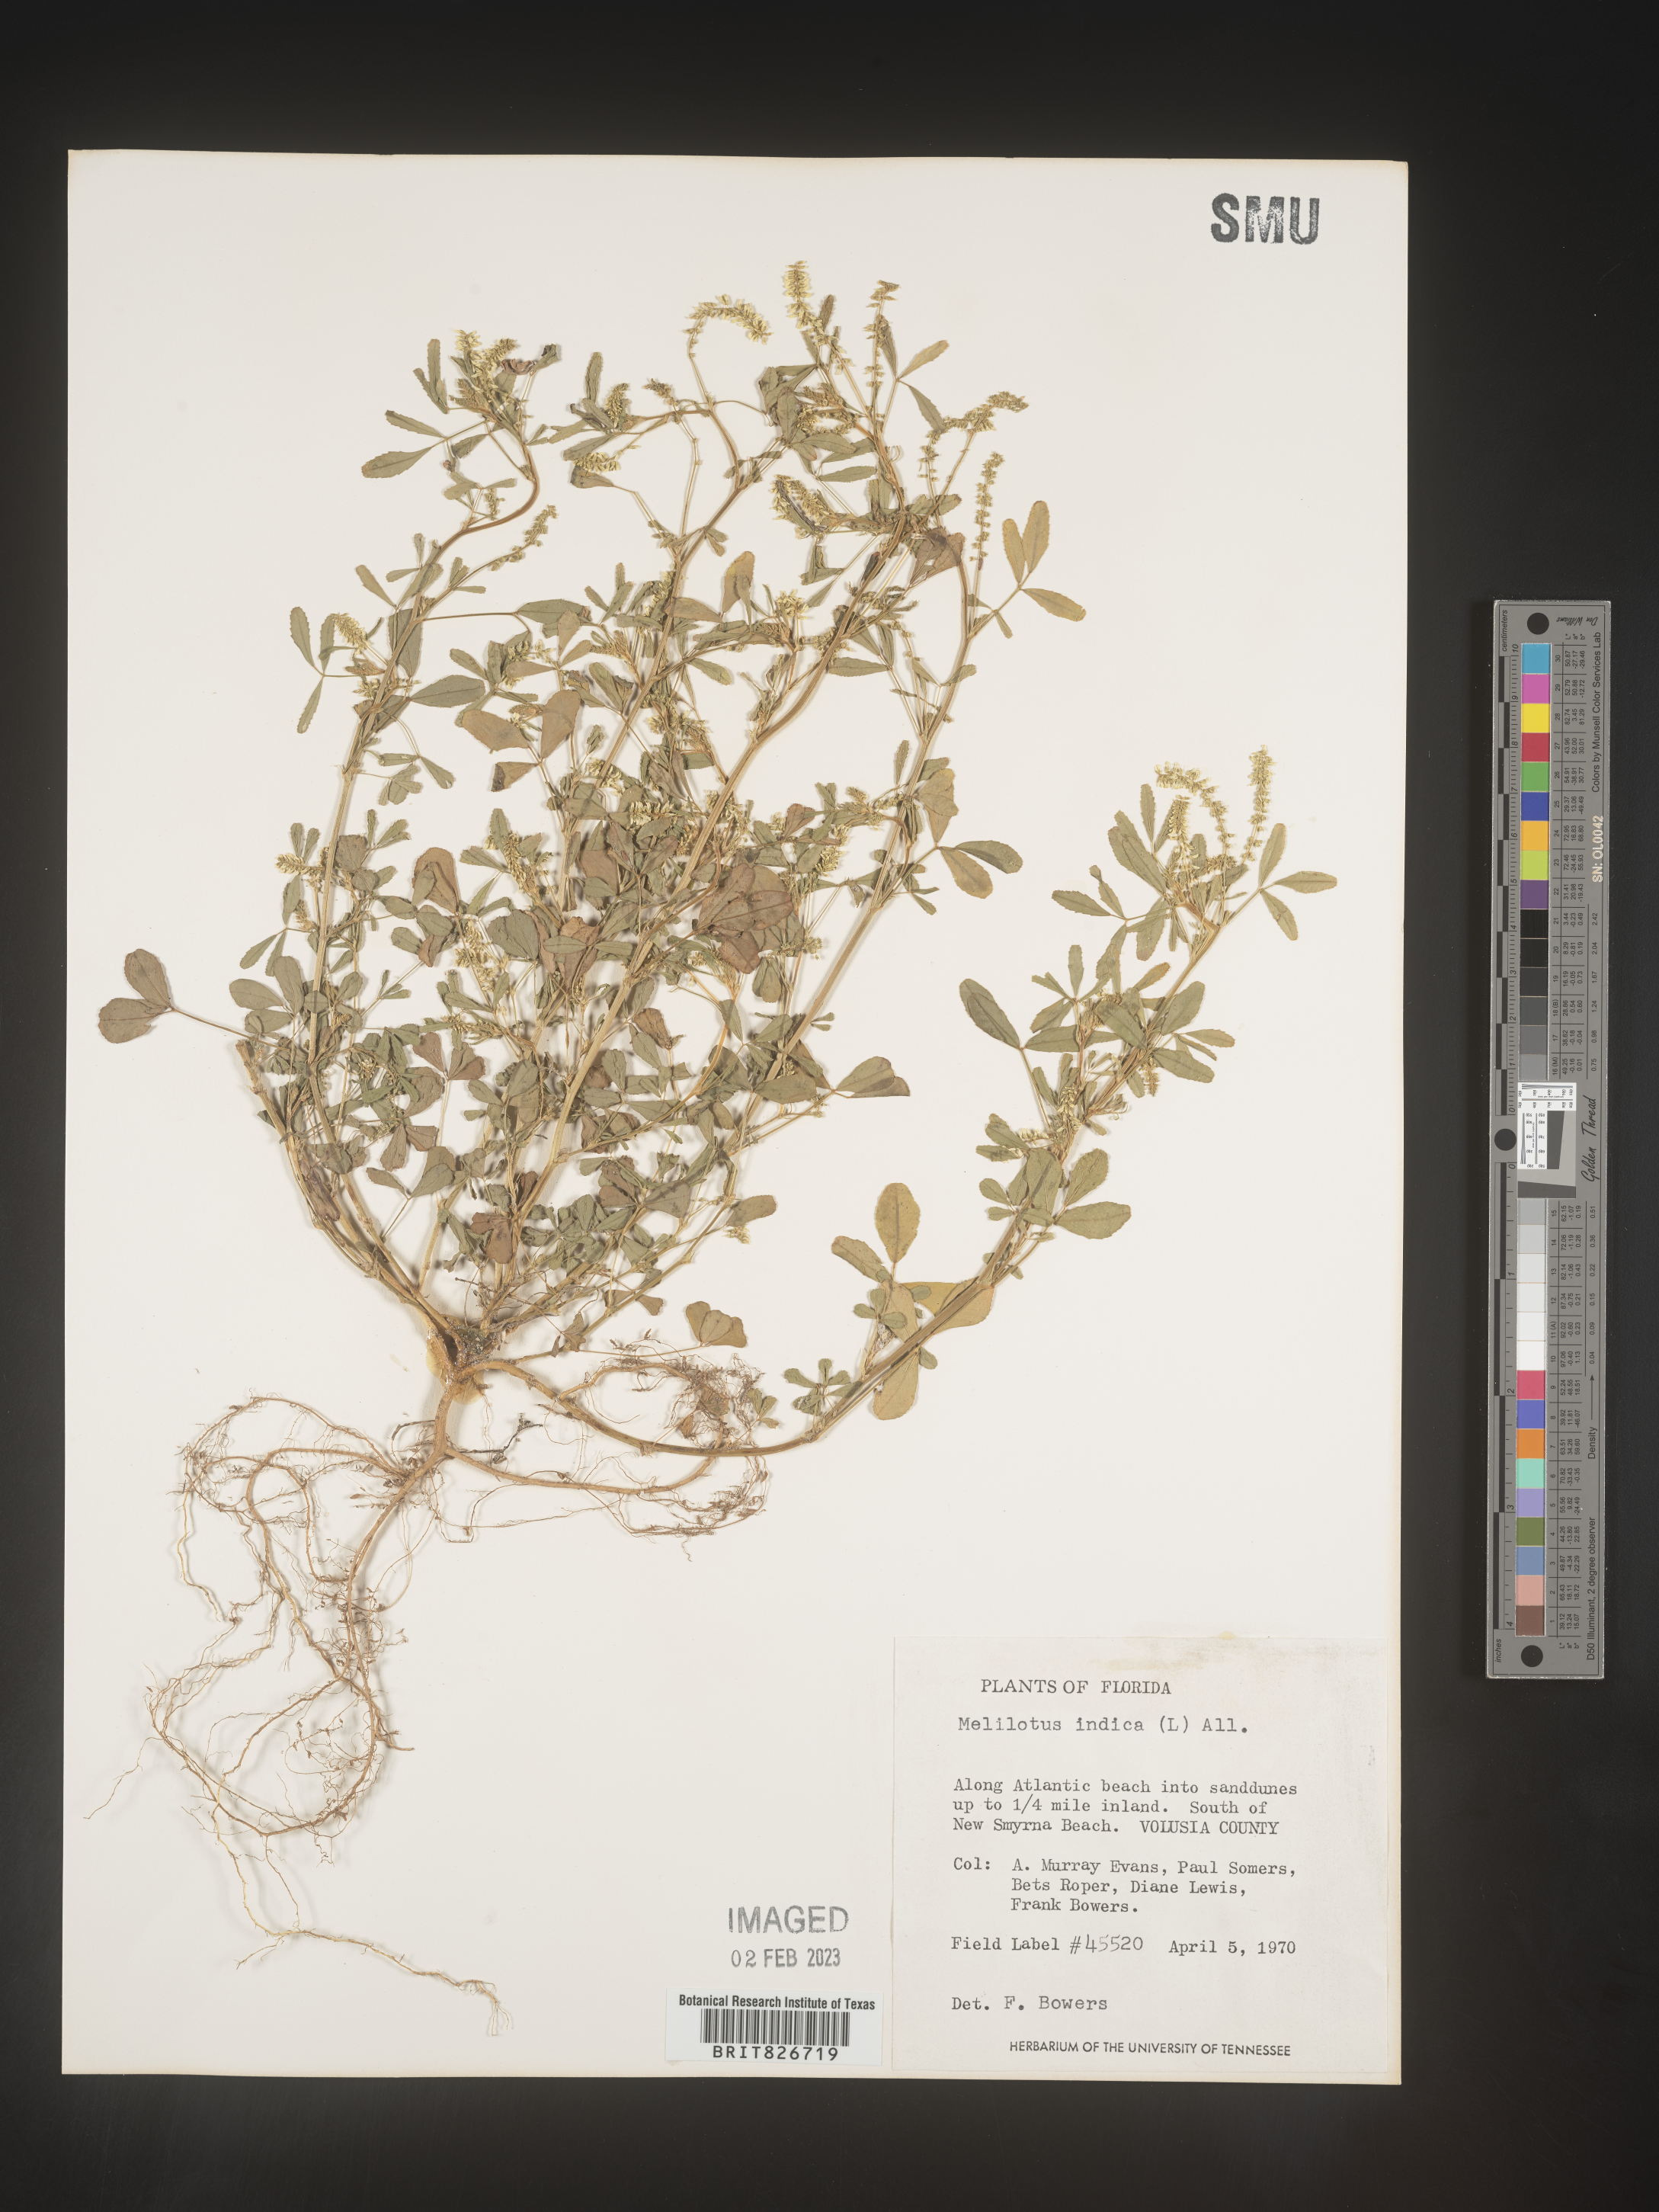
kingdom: Plantae
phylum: Tracheophyta
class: Magnoliopsida
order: Fabales
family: Fabaceae
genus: Melilotus
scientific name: Melilotus indicus
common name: Small melilot
